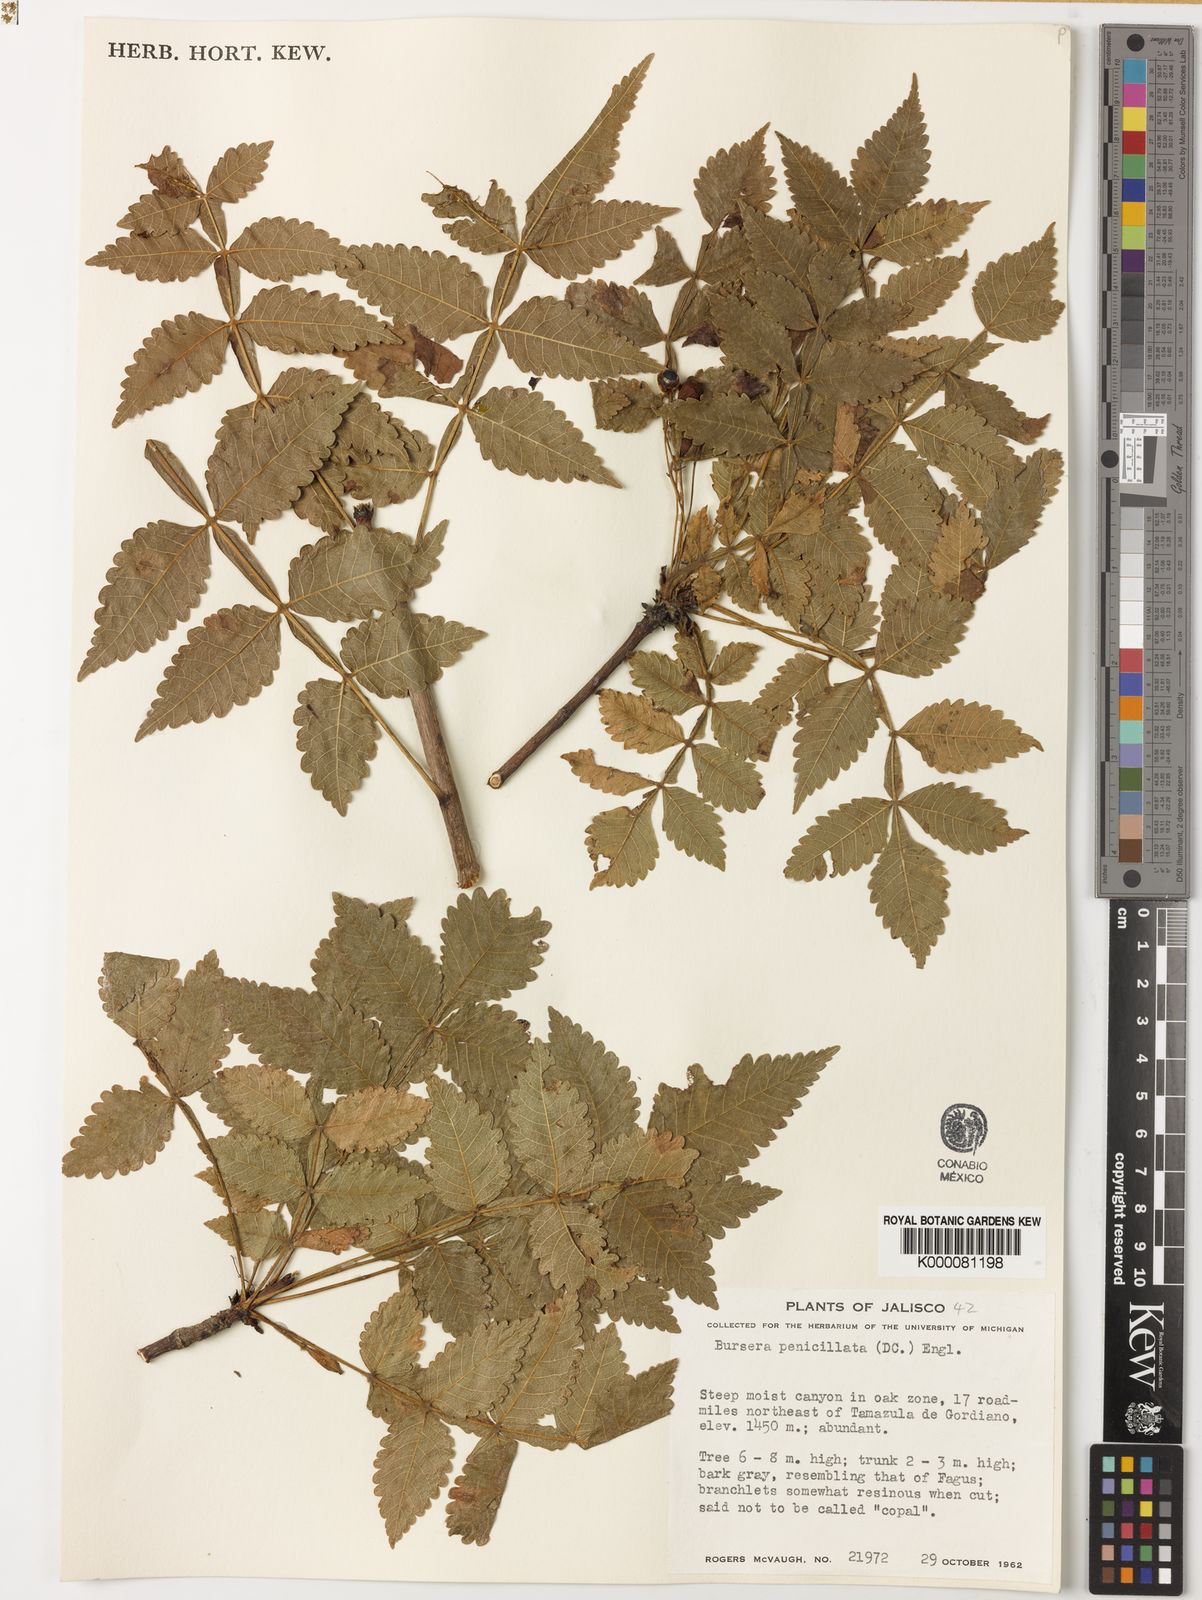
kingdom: Plantae
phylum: Tracheophyta
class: Magnoliopsida
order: Sapindales
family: Burseraceae
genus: Bursera
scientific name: Bursera penicillata
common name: Indian-lavender
